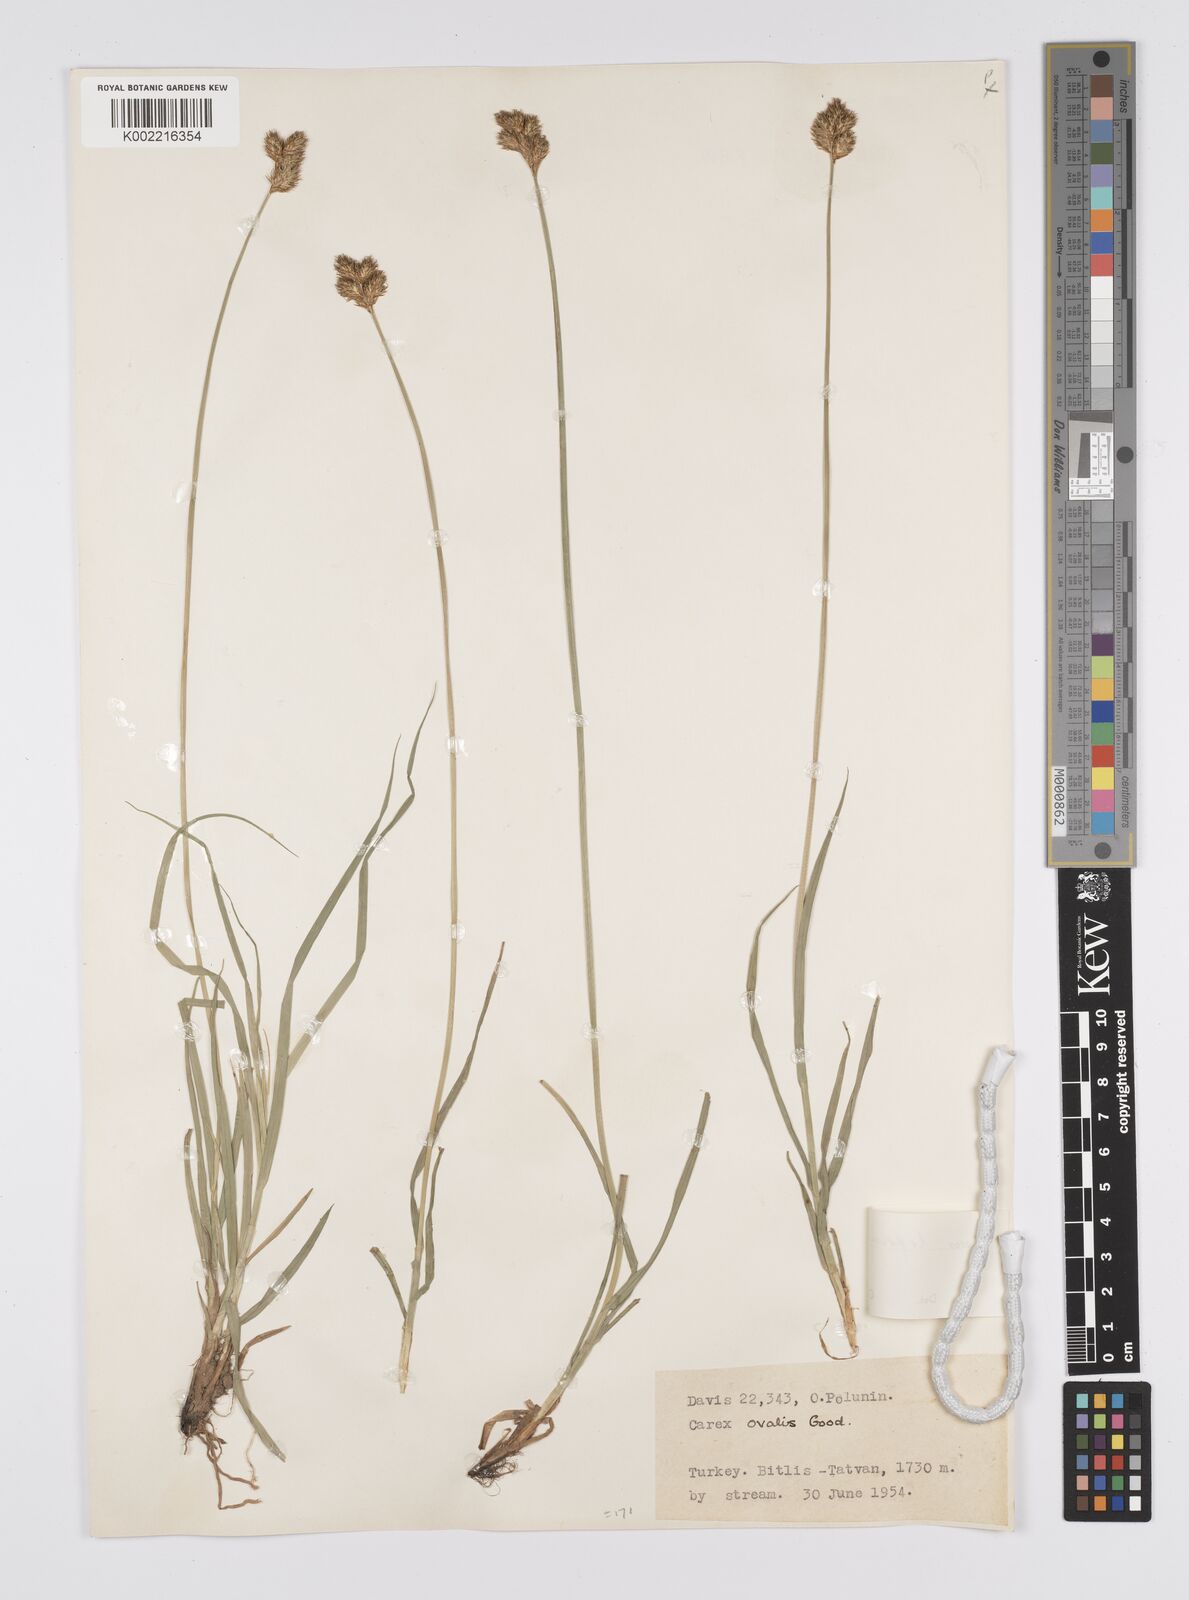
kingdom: Plantae
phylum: Tracheophyta
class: Liliopsida
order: Poales
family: Cyperaceae
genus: Carex
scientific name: Carex leporina
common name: Oval sedge
